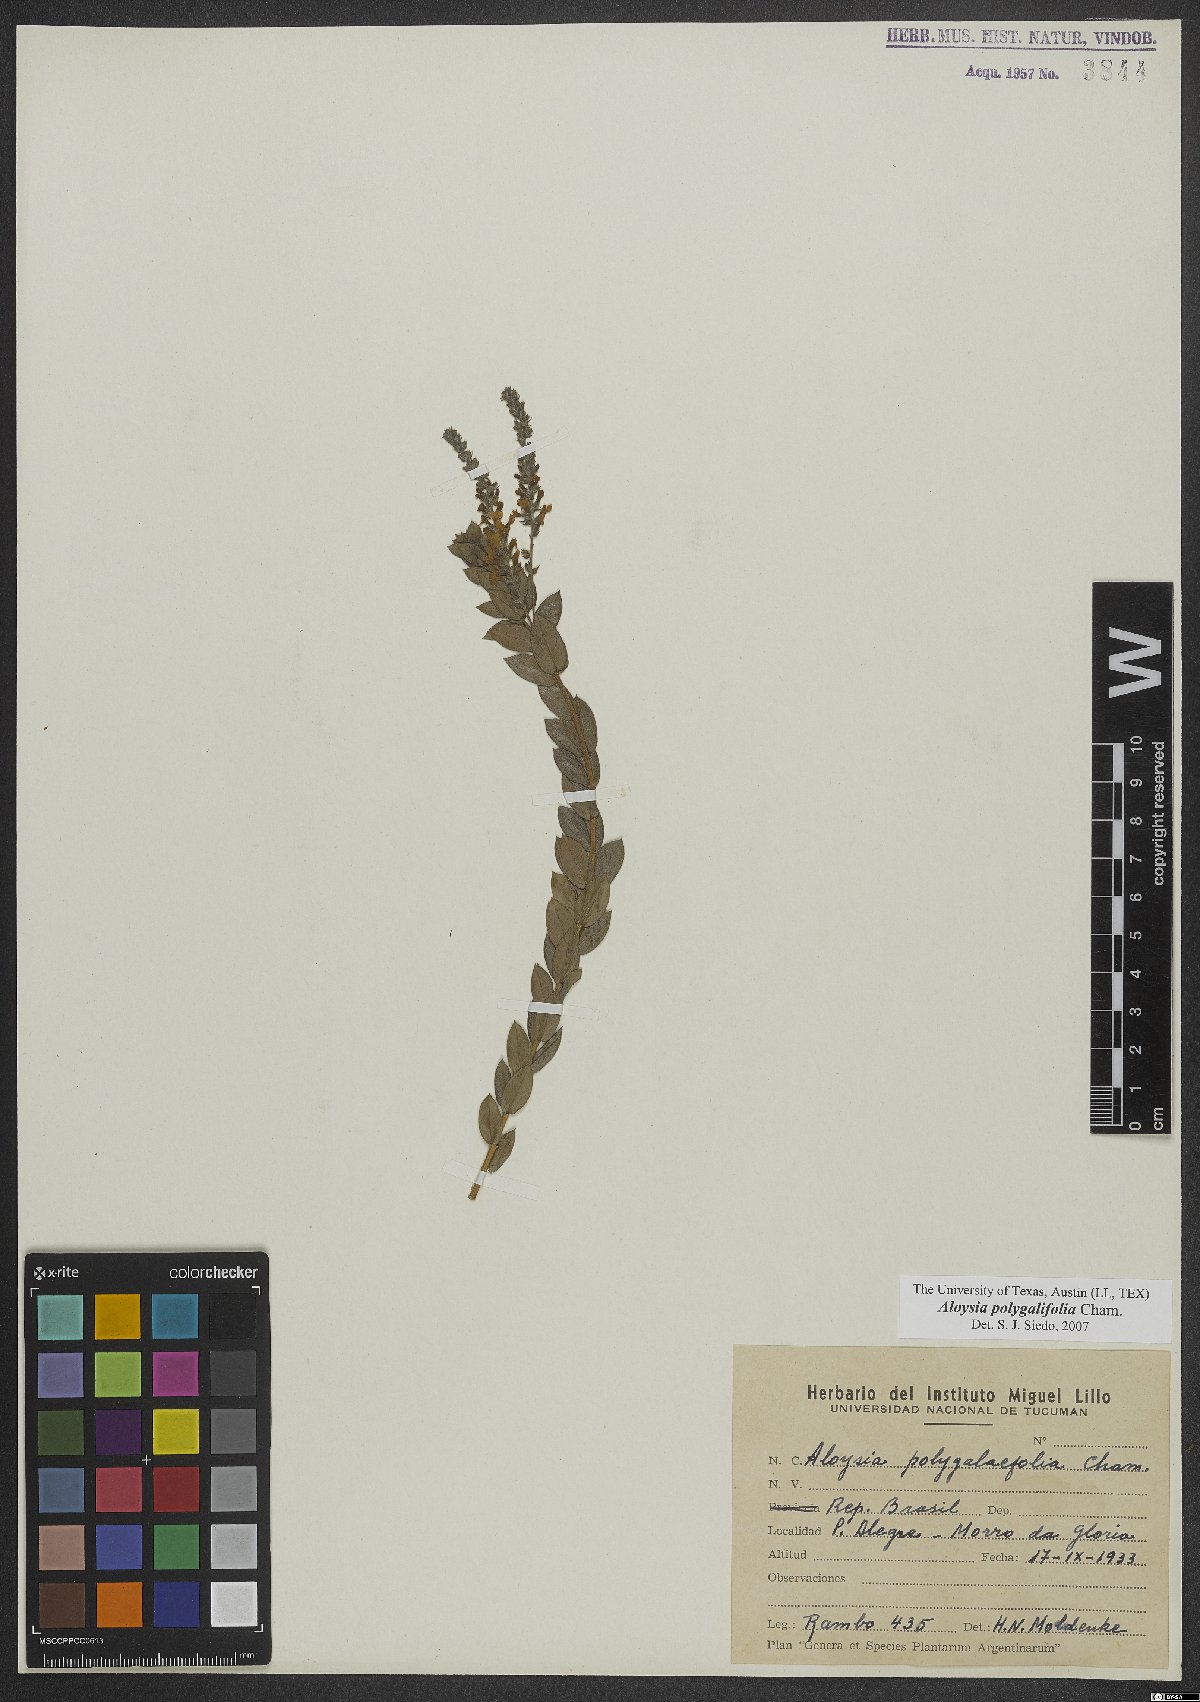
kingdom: Plantae
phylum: Tracheophyta
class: Magnoliopsida
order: Lamiales
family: Verbenaceae
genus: Aloysia
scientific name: Aloysia polygalifolia
